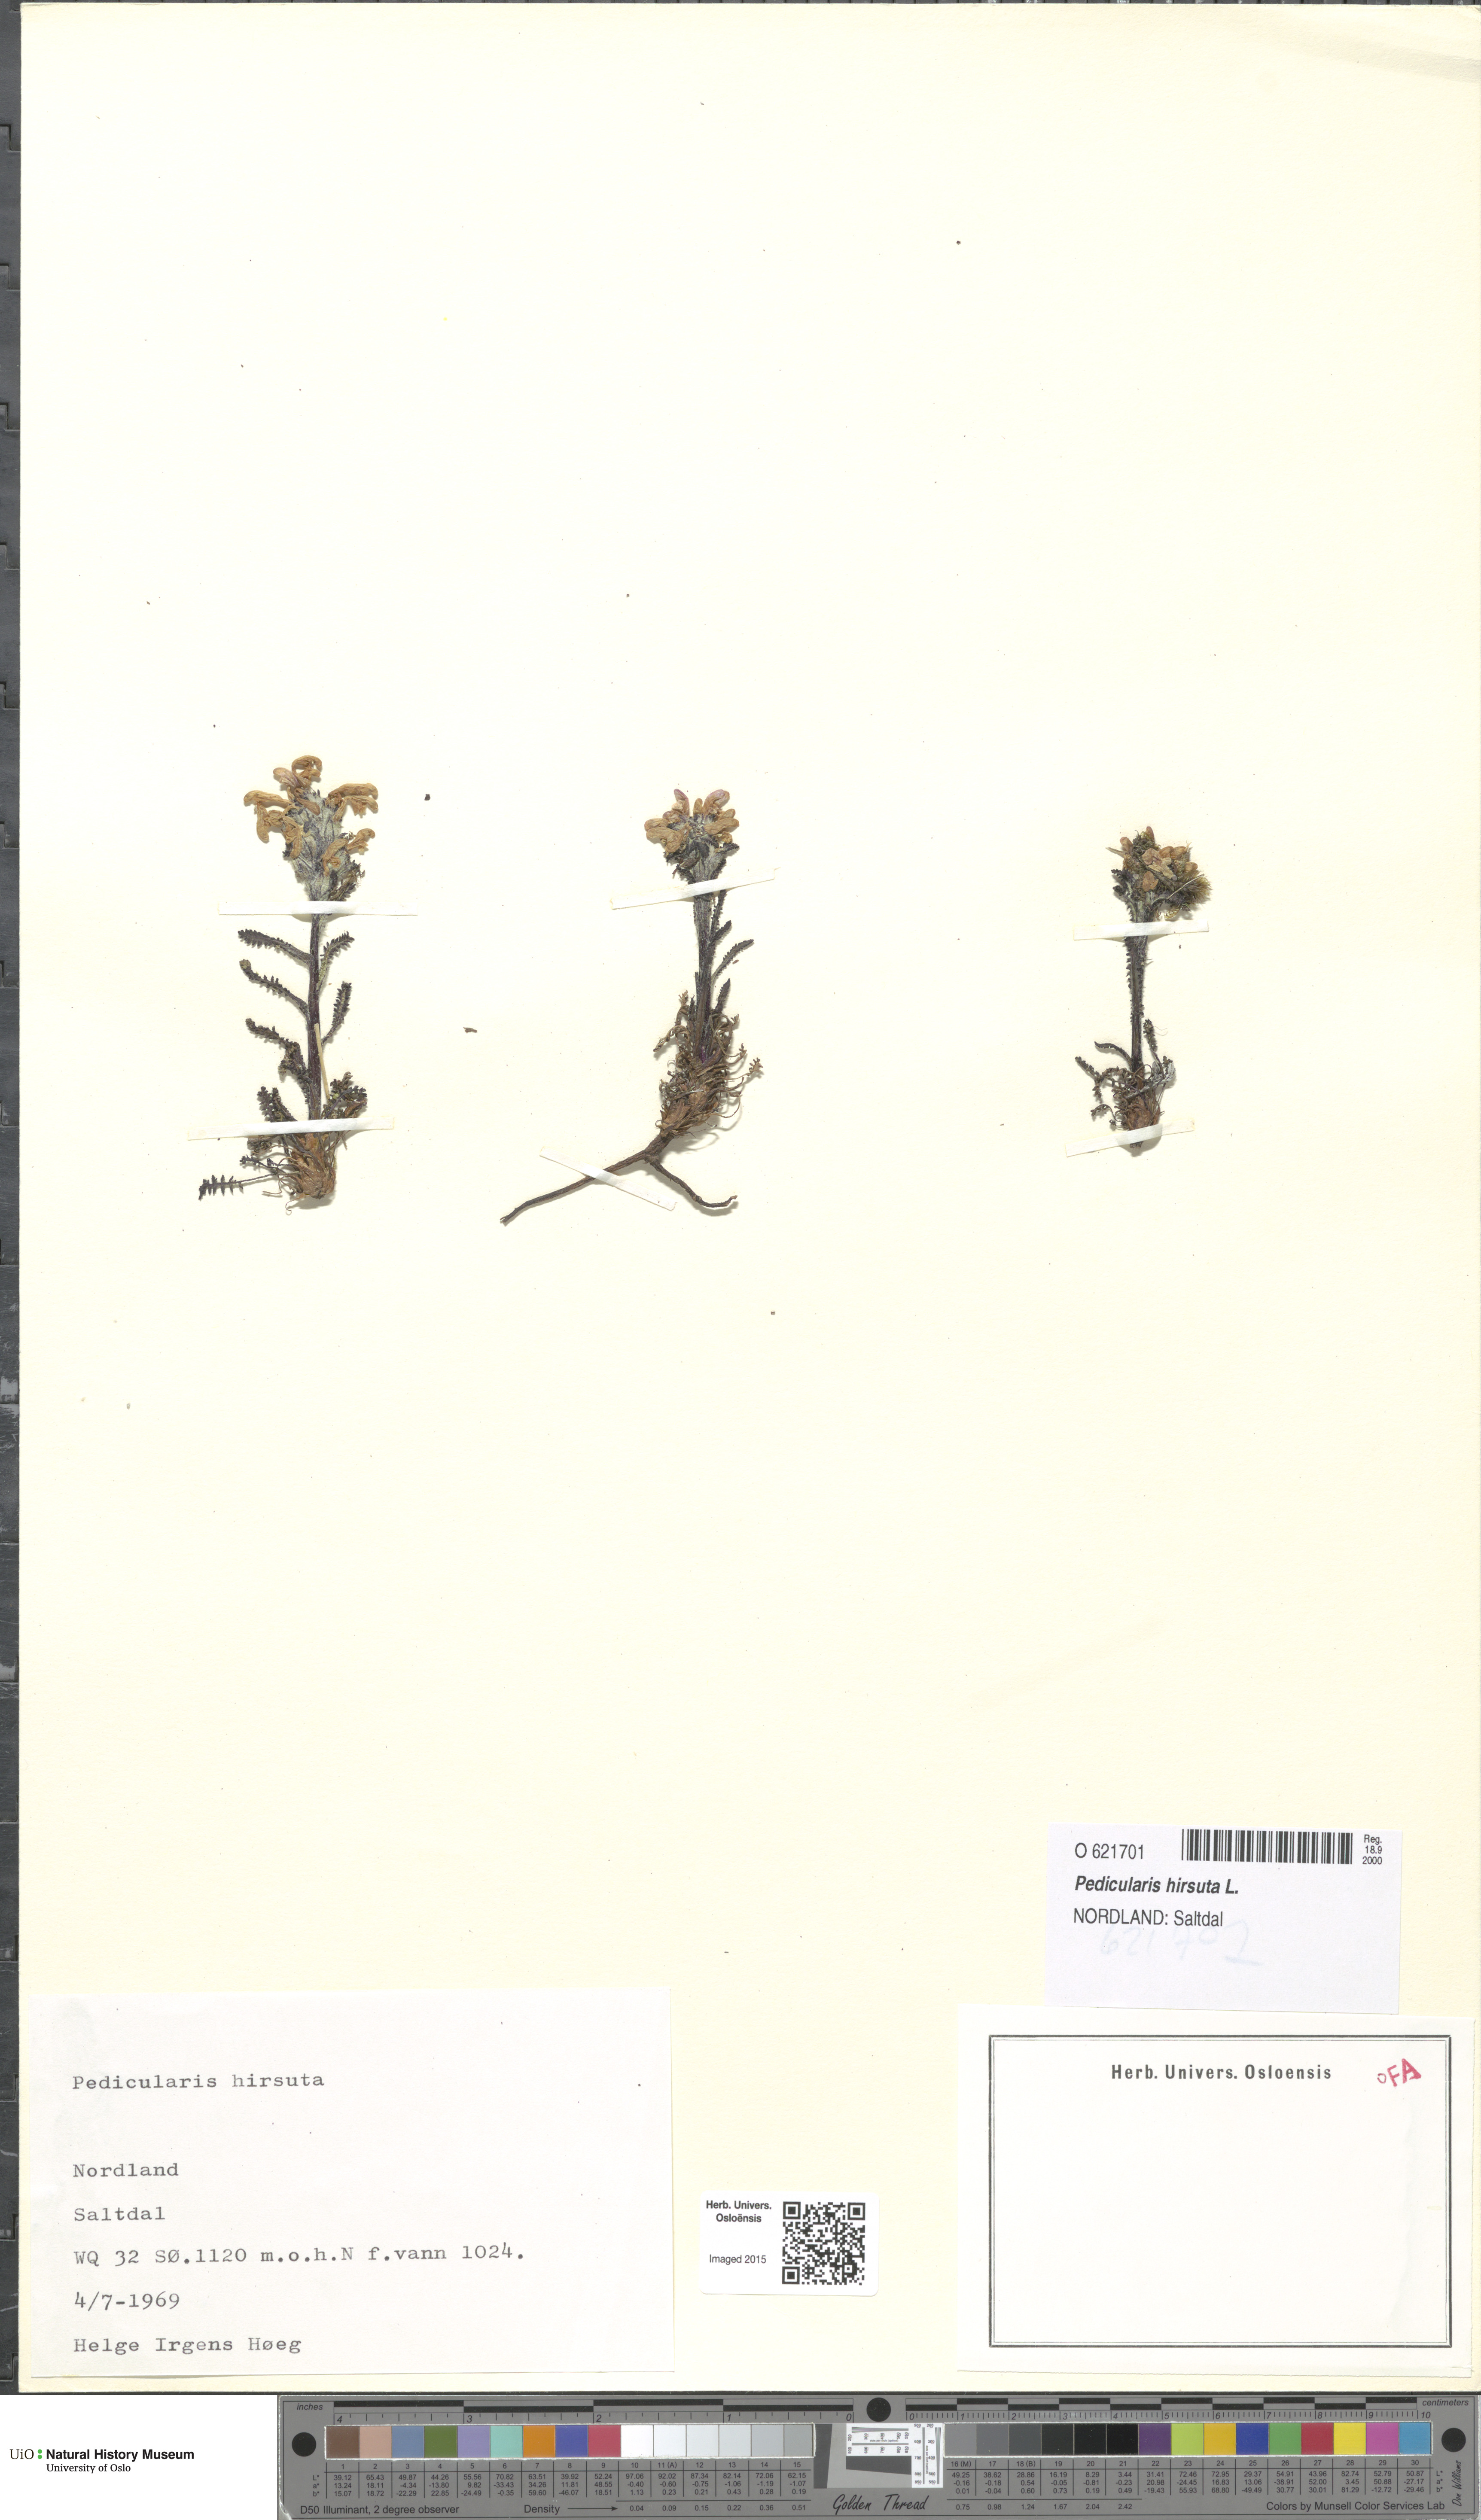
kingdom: Plantae
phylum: Tracheophyta
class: Magnoliopsida
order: Lamiales
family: Orobanchaceae
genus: Pedicularis
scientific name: Pedicularis hirsuta
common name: Hairy lousewort
